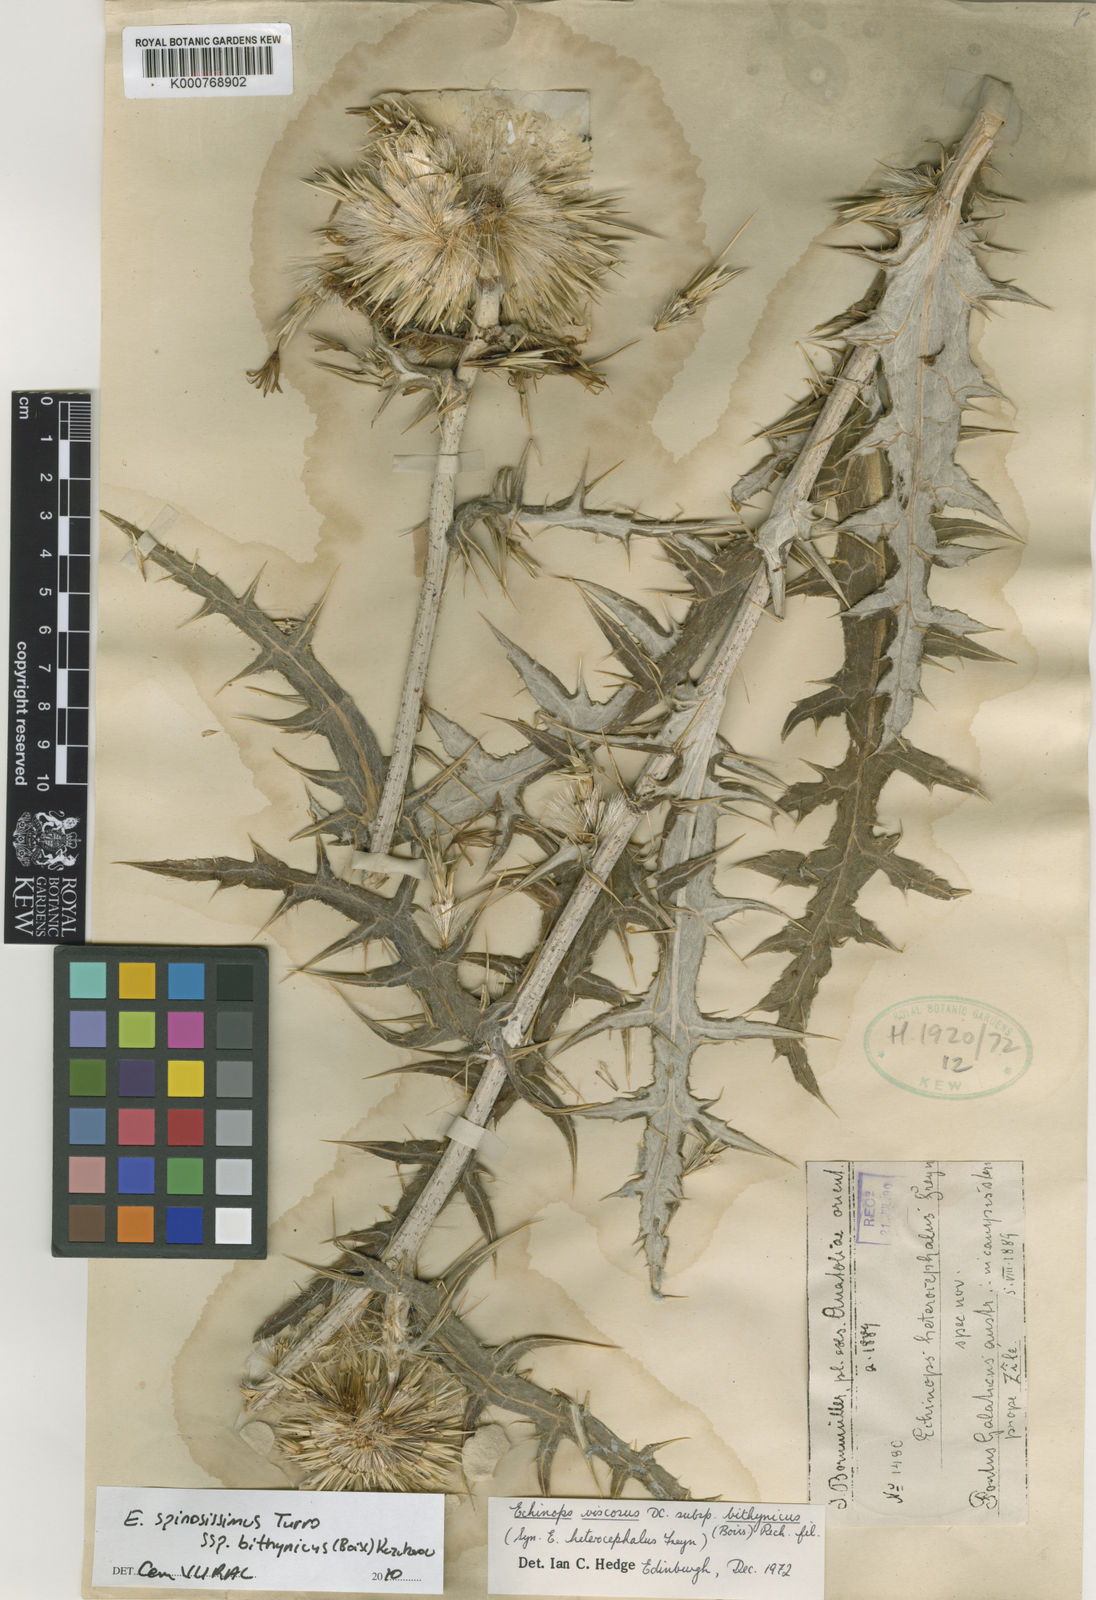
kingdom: Plantae
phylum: Tracheophyta
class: Magnoliopsida
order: Asterales
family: Asteraceae
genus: Echinops
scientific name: Echinops spinosissimus
